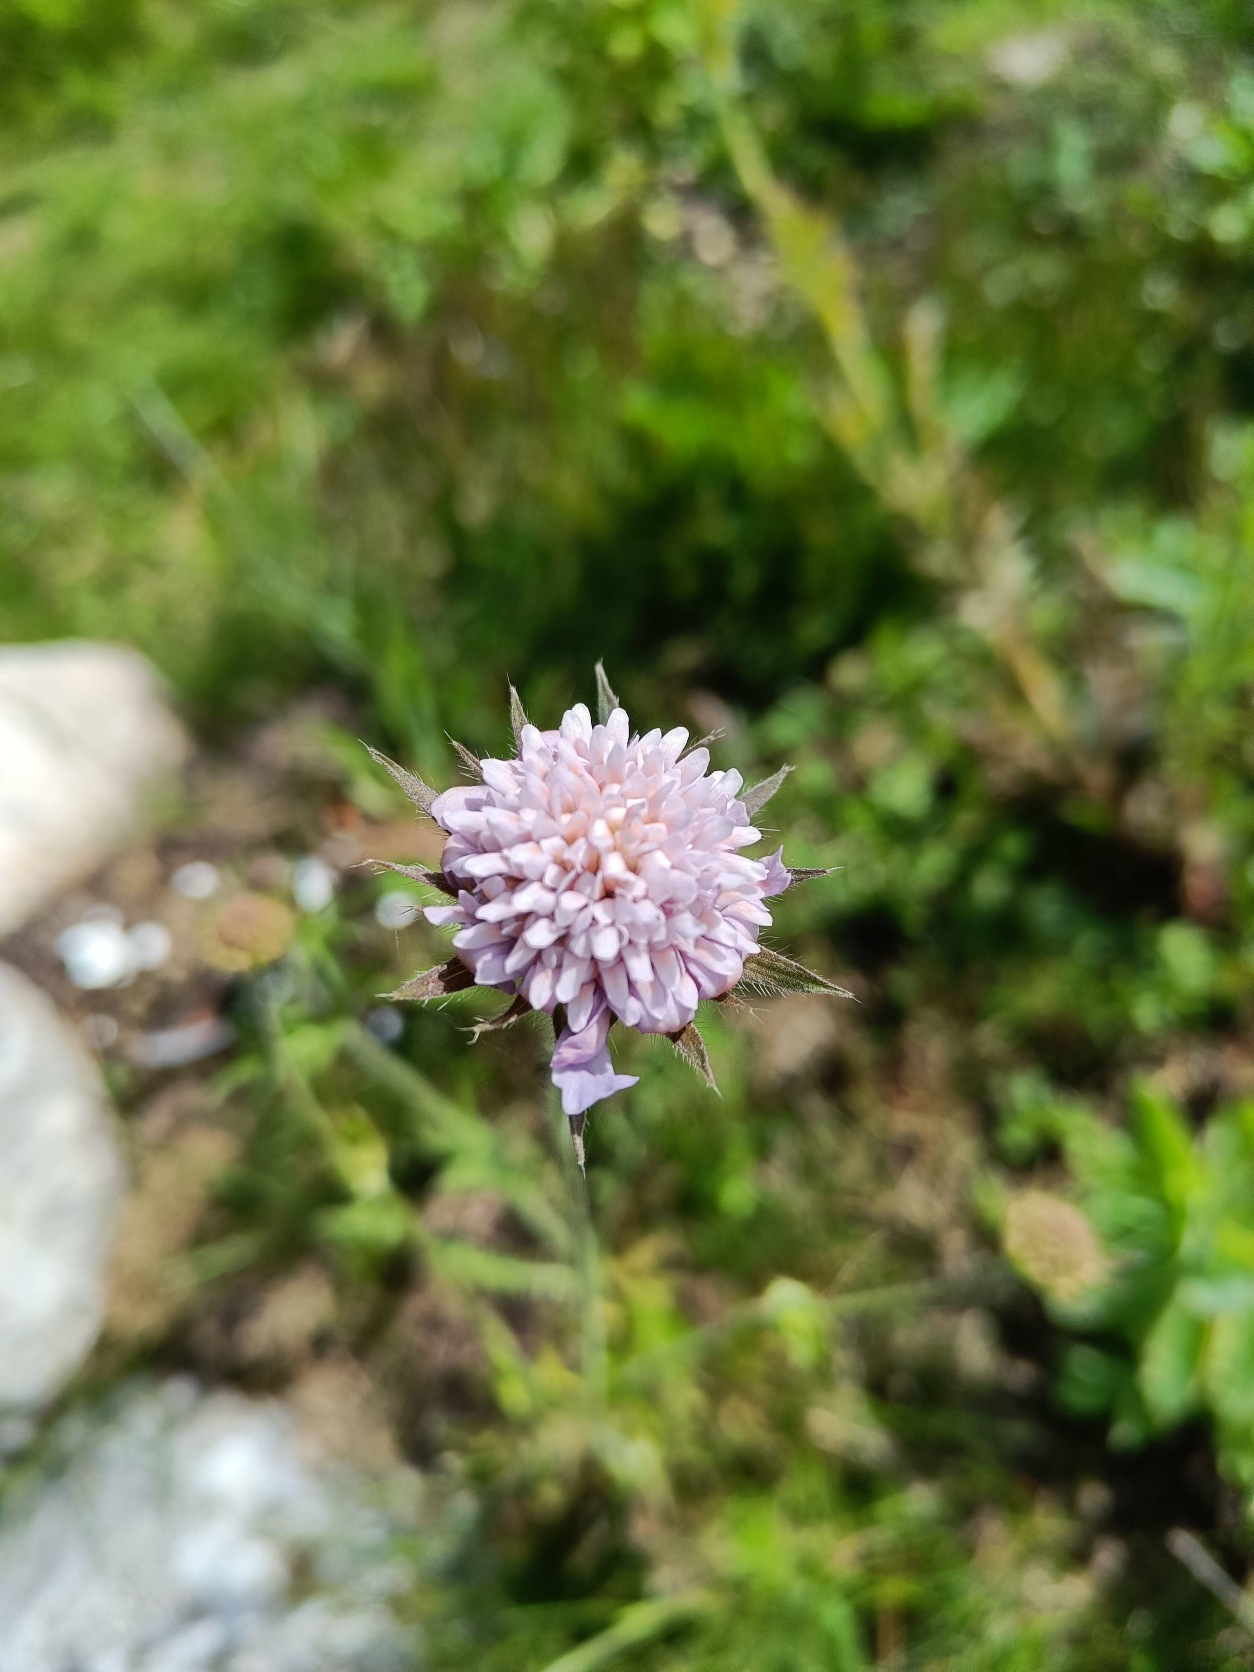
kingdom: Plantae
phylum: Tracheophyta
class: Magnoliopsida
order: Dipsacales
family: Caprifoliaceae
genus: Knautia
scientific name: Knautia arvensis
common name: Blåhat
